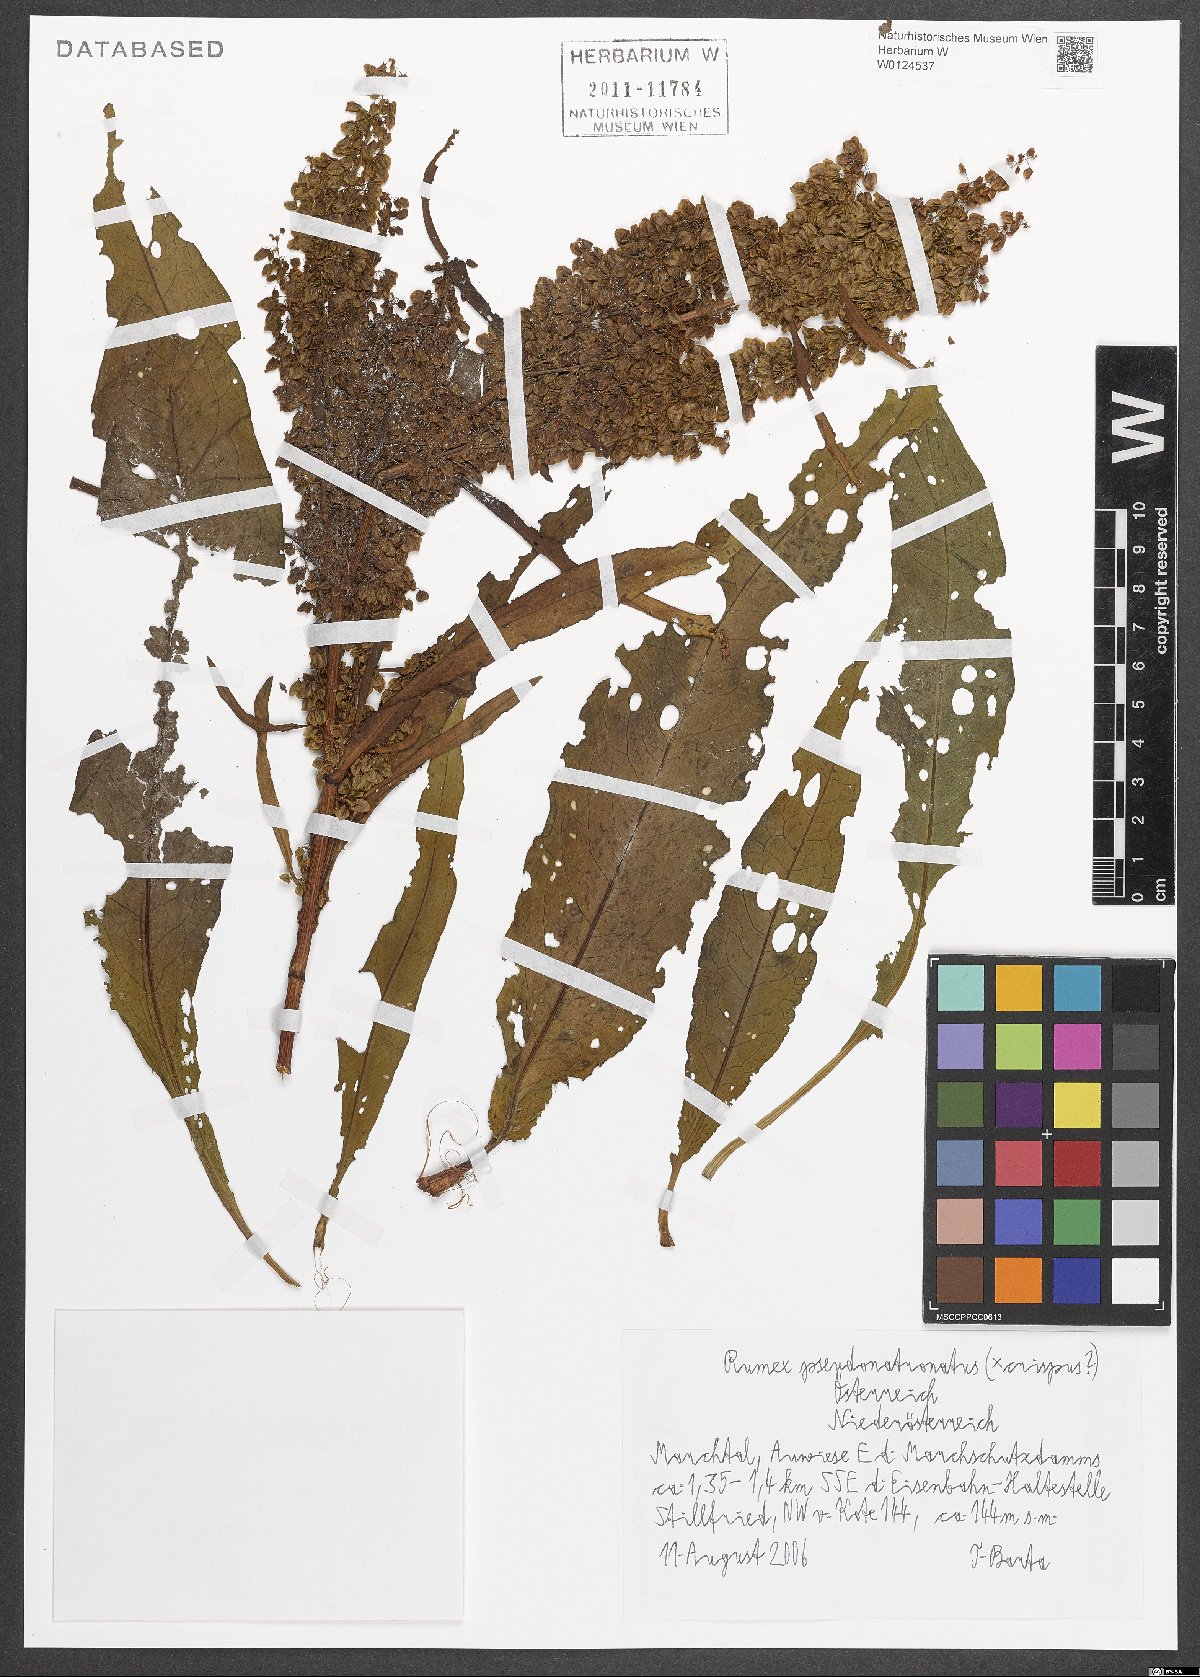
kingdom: Plantae
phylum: Tracheophyta
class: Magnoliopsida
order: Caryophyllales
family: Polygonaceae
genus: Rumex
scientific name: Rumex pseudonatronatus
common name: Field dock
